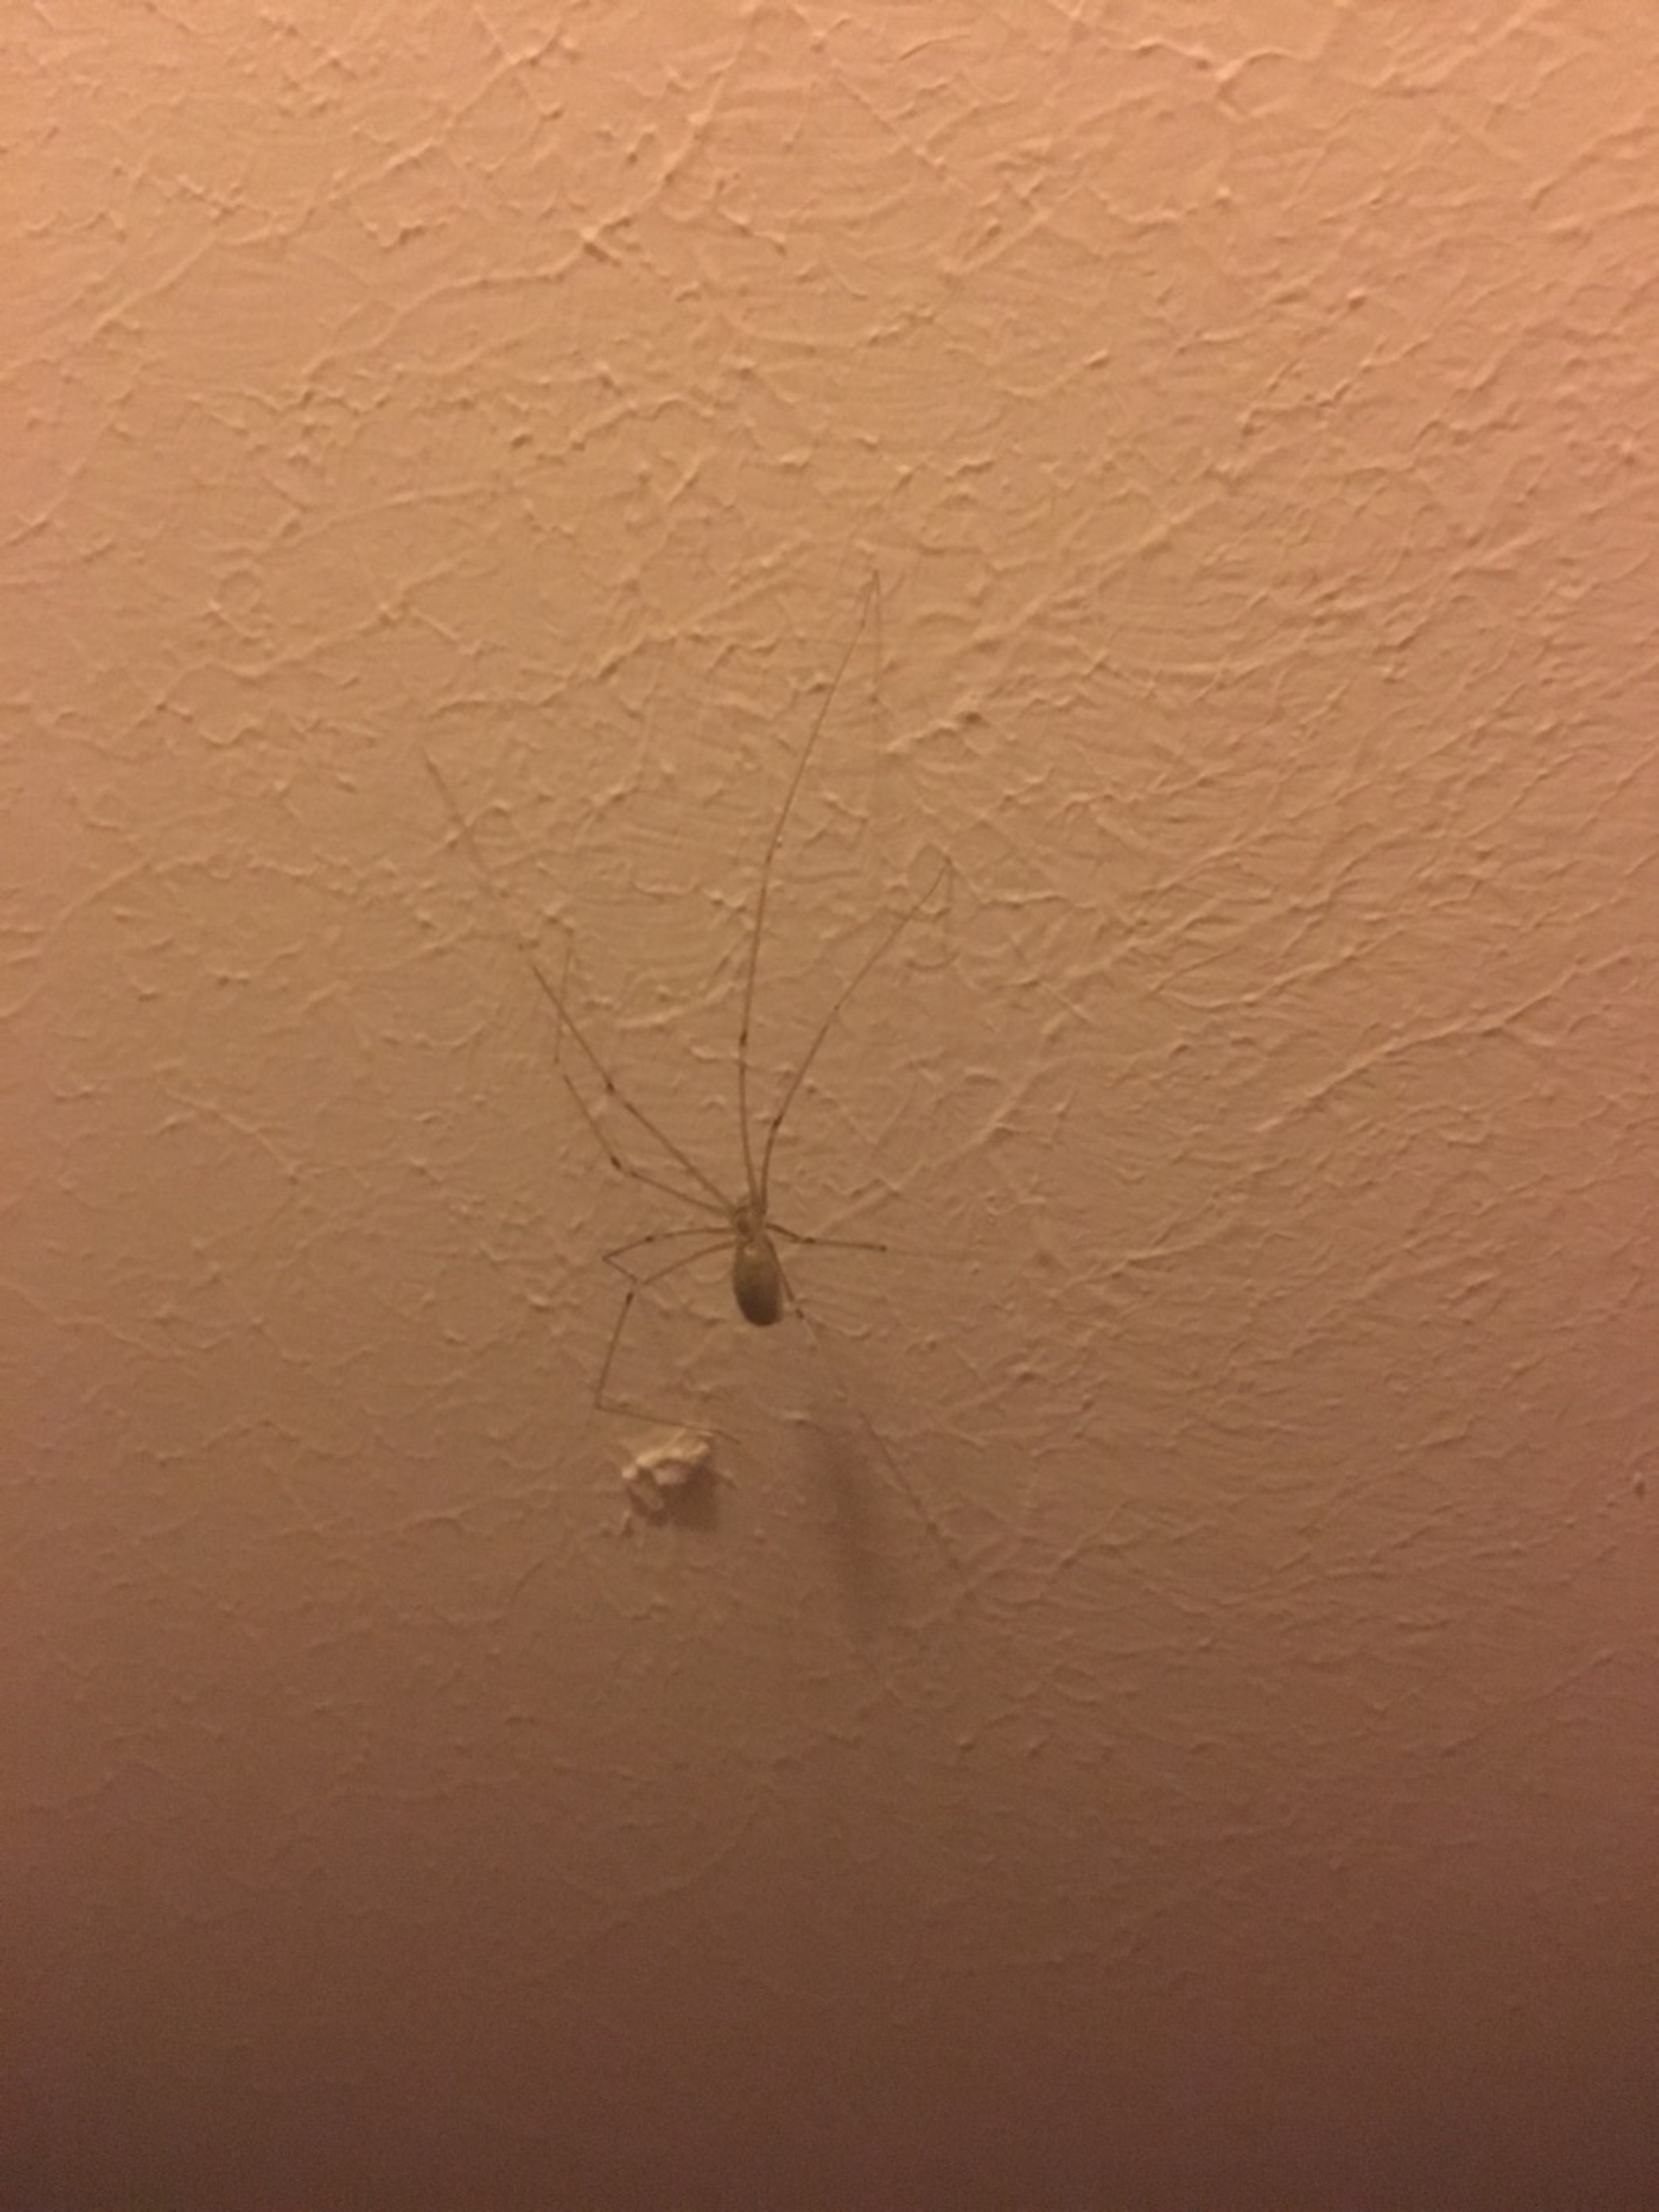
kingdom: Animalia
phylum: Arthropoda
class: Arachnida
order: Araneae
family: Pholcidae
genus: Pholcus
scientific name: Pholcus phalangioides
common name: Mejeredderkop
